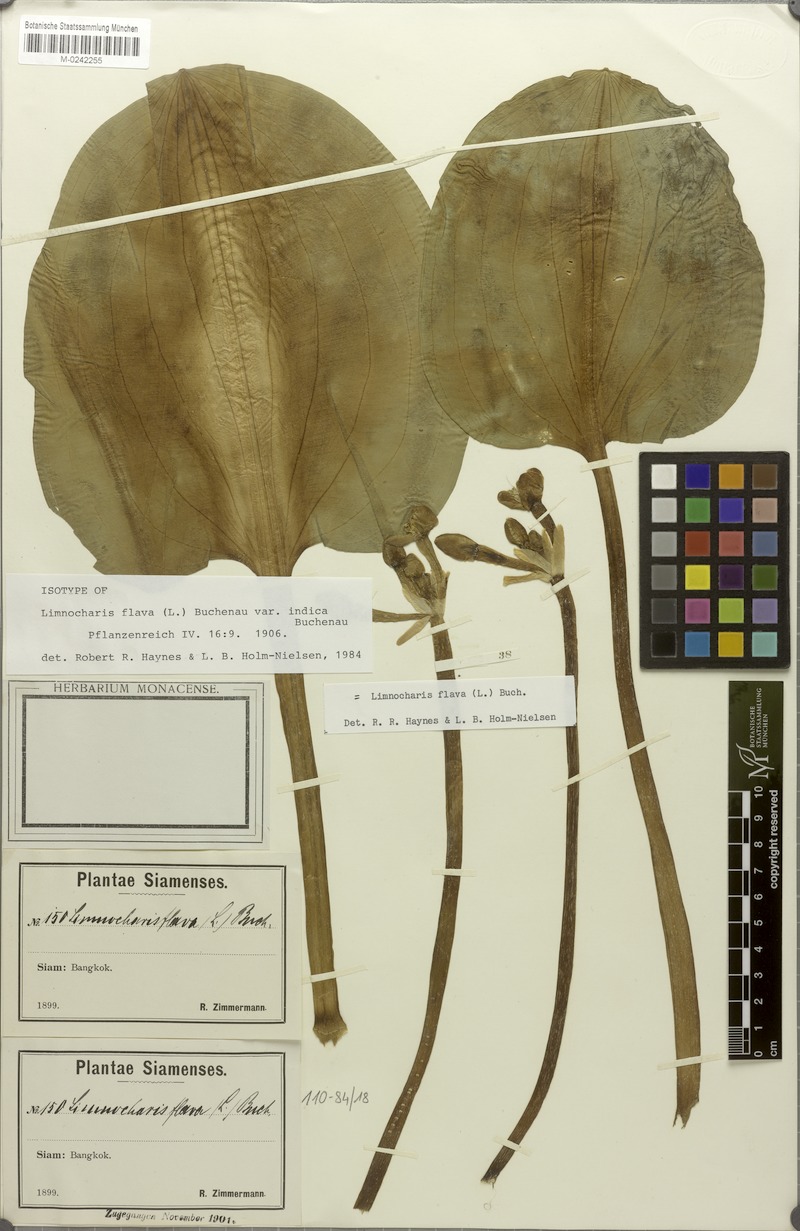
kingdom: Plantae
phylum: Tracheophyta
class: Liliopsida
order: Alismatales
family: Alismataceae
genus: Limnocharis
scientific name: Limnocharis flava
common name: Sawah-flower-rush
